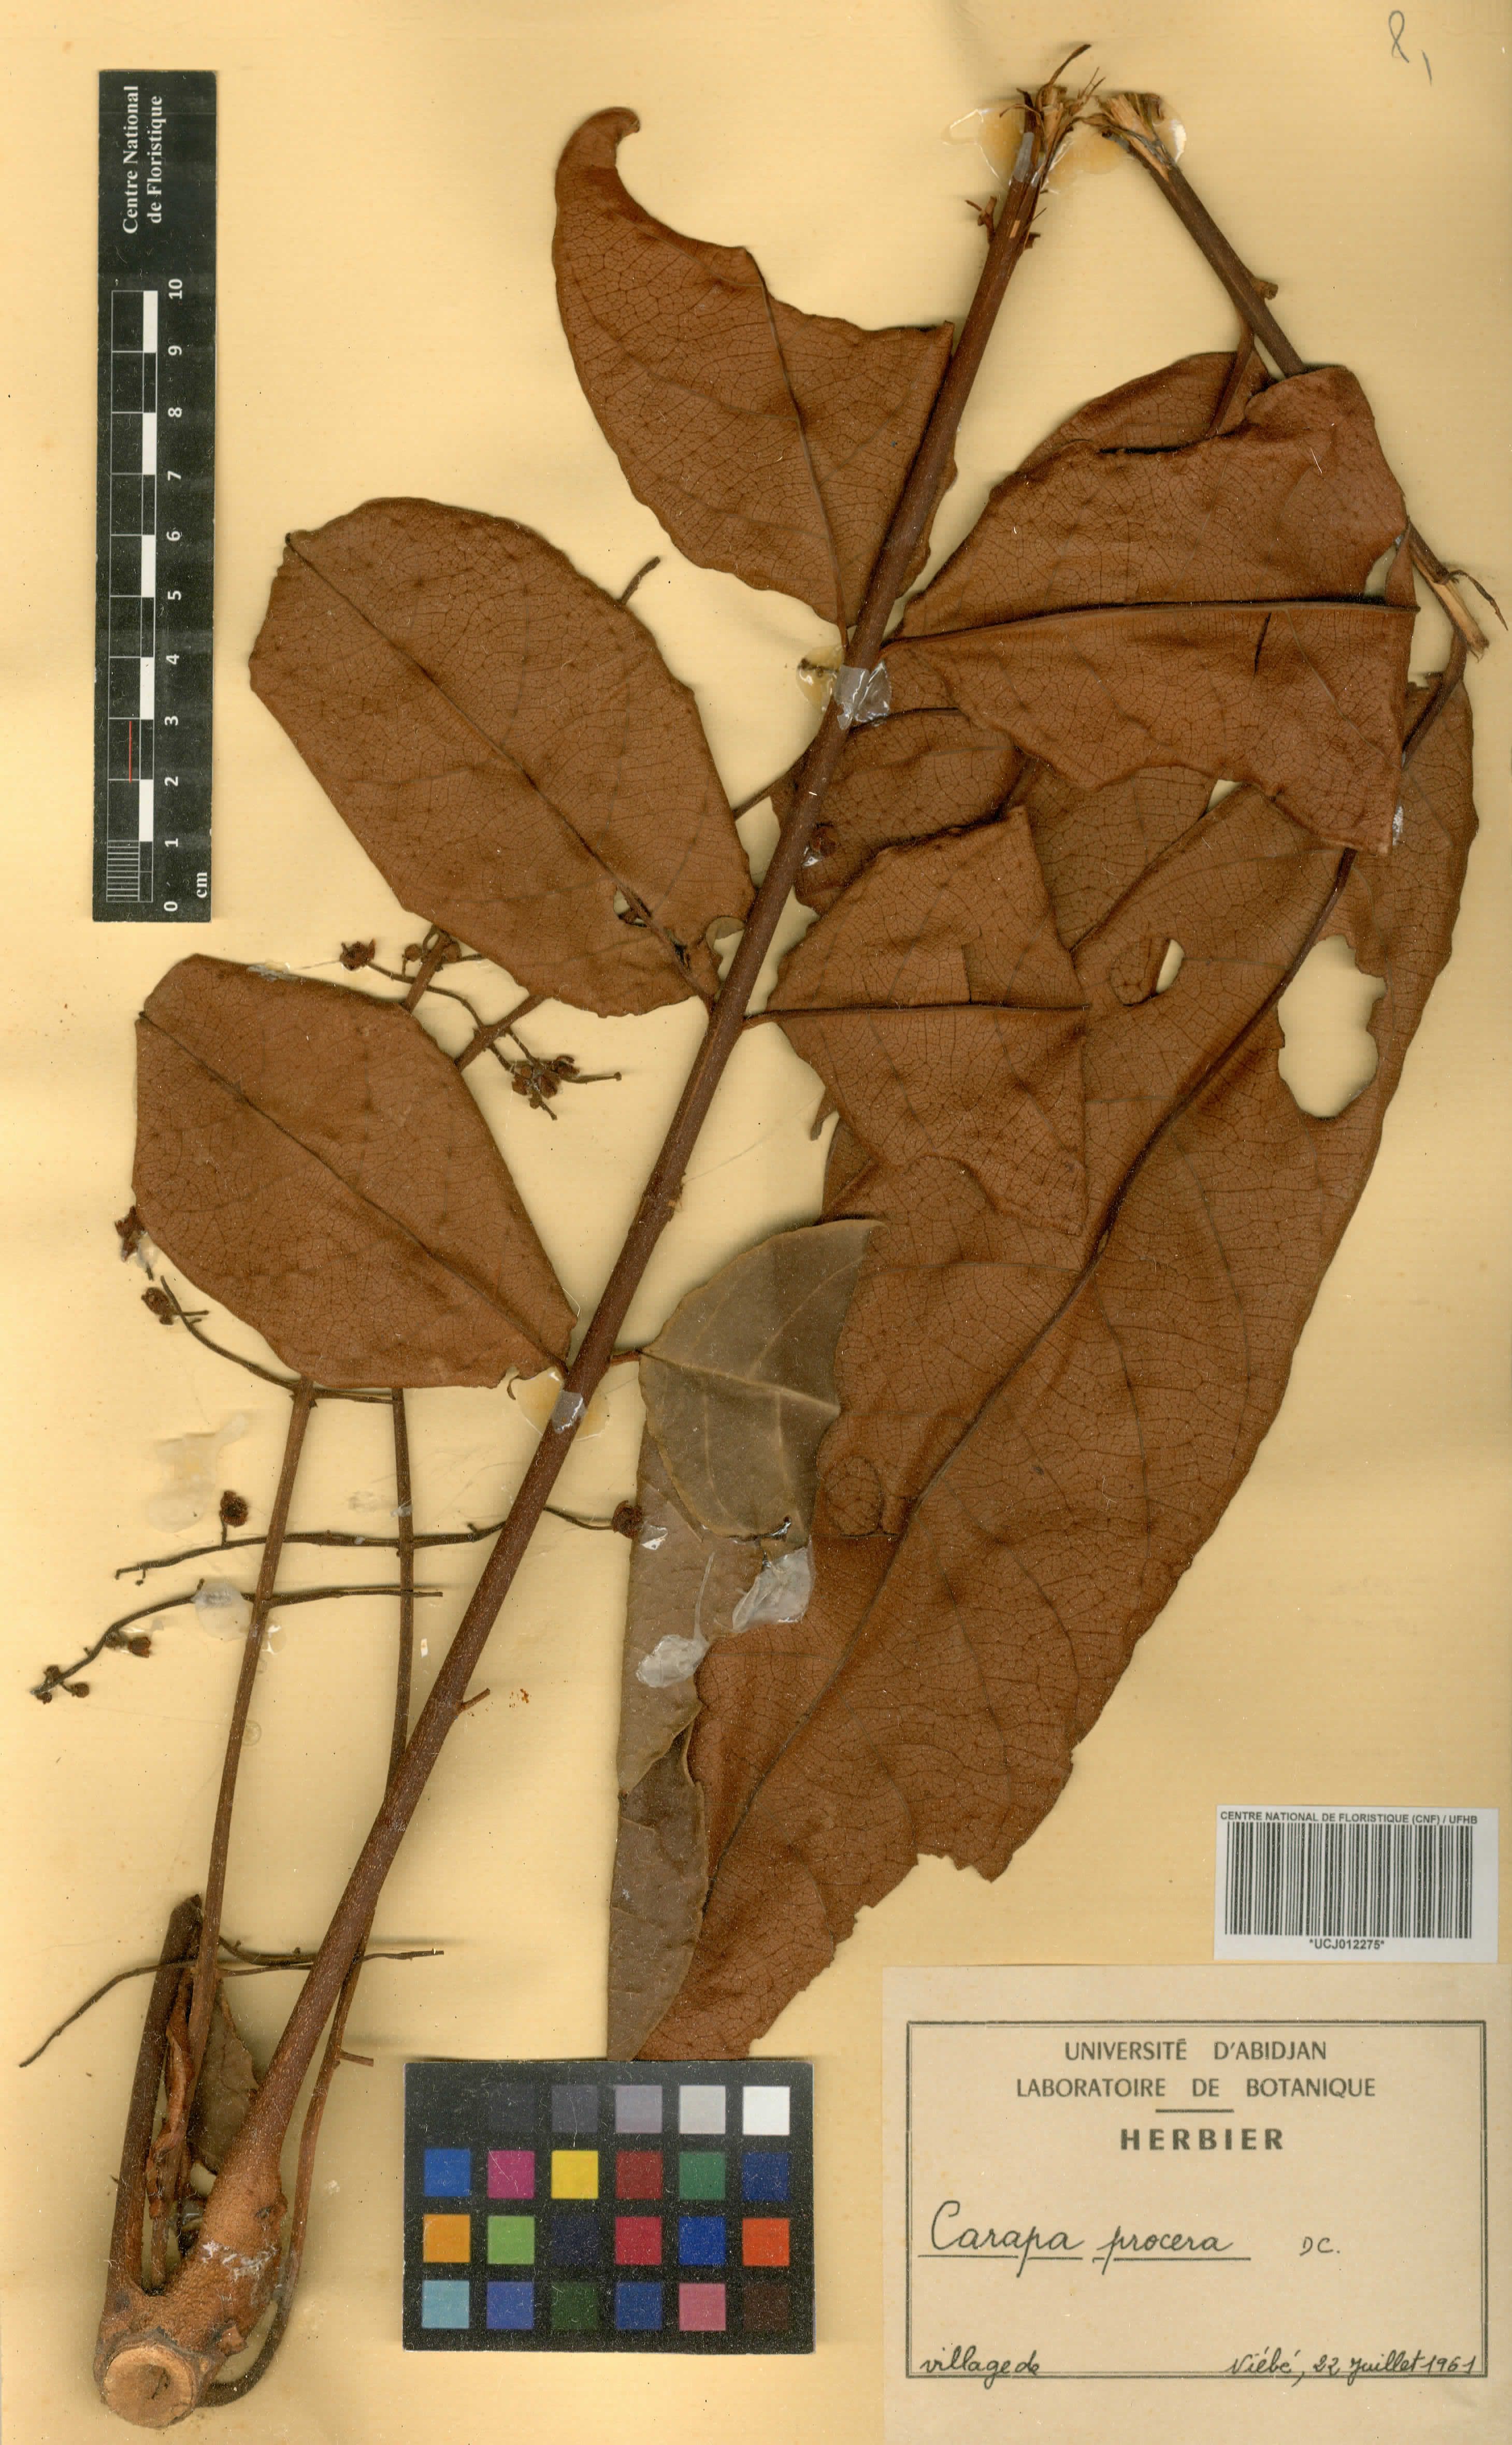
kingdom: Plantae
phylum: Tracheophyta
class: Magnoliopsida
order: Sapindales
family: Meliaceae
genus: Carapa
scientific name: Carapa procera
